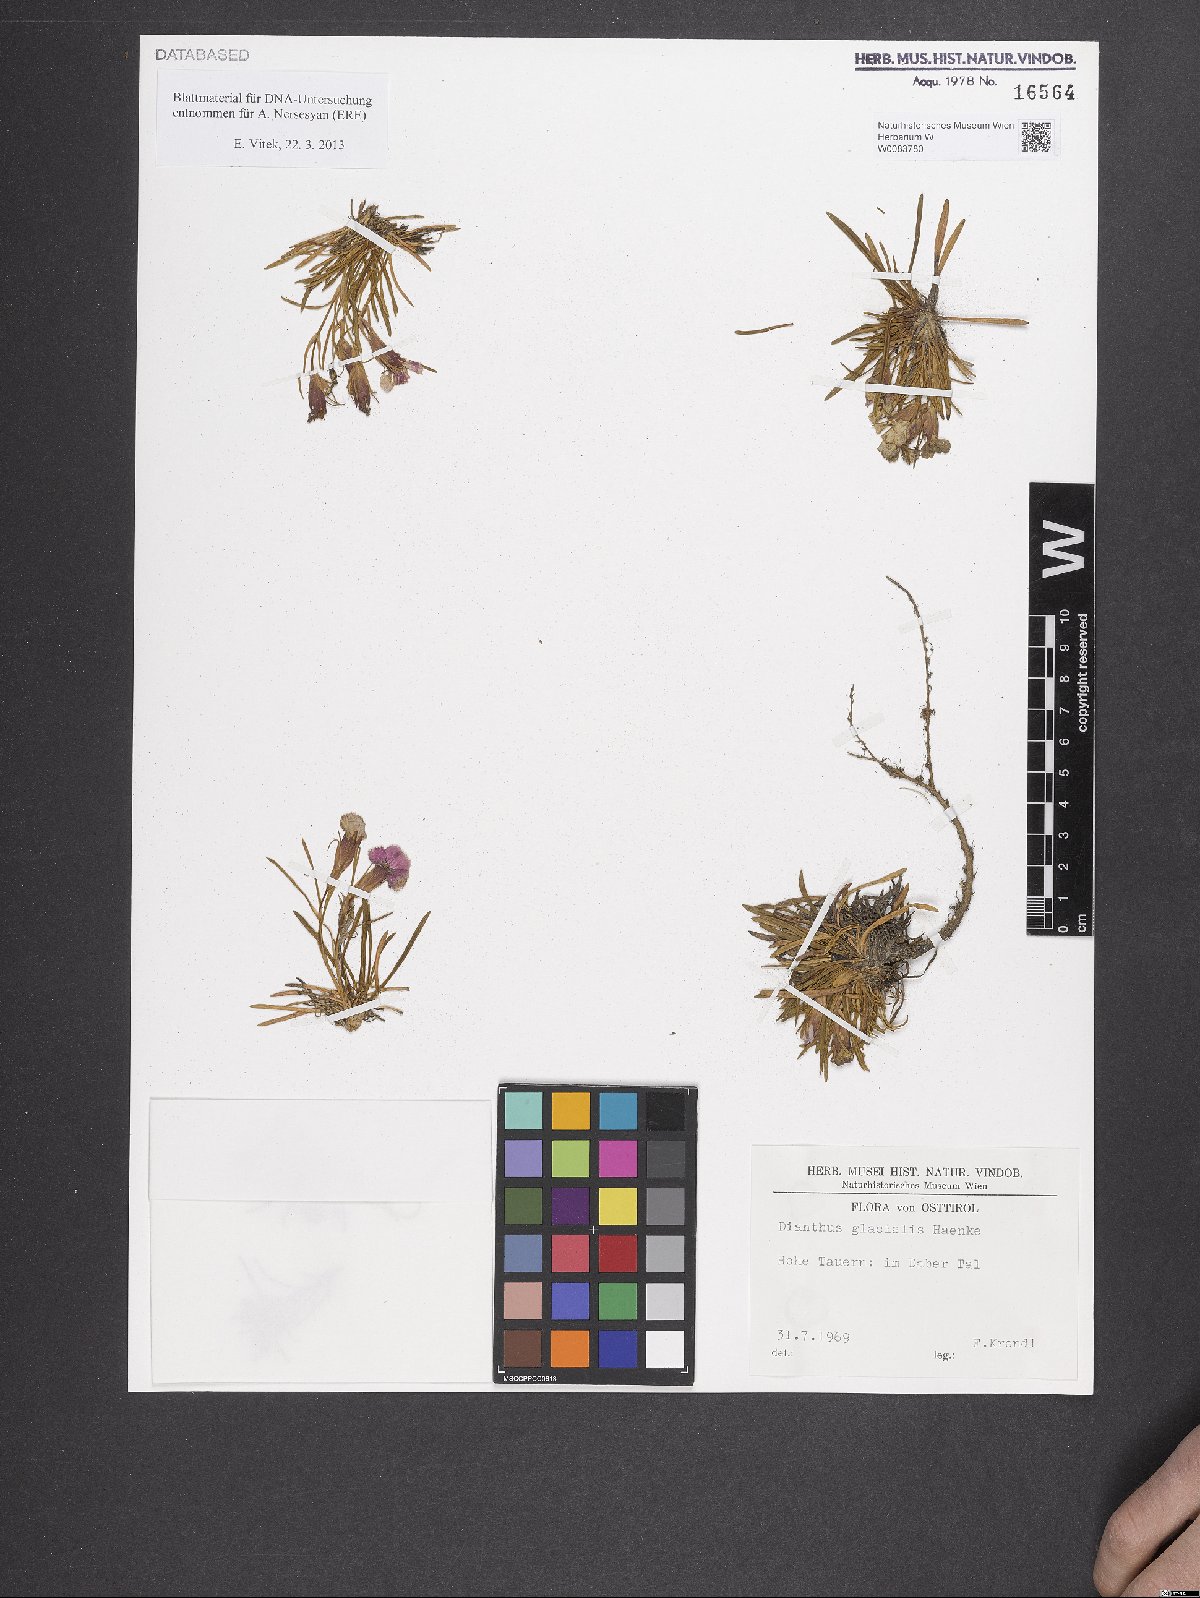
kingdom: Plantae
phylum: Tracheophyta
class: Magnoliopsida
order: Caryophyllales
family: Caryophyllaceae
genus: Dianthus
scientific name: Dianthus glacialis
